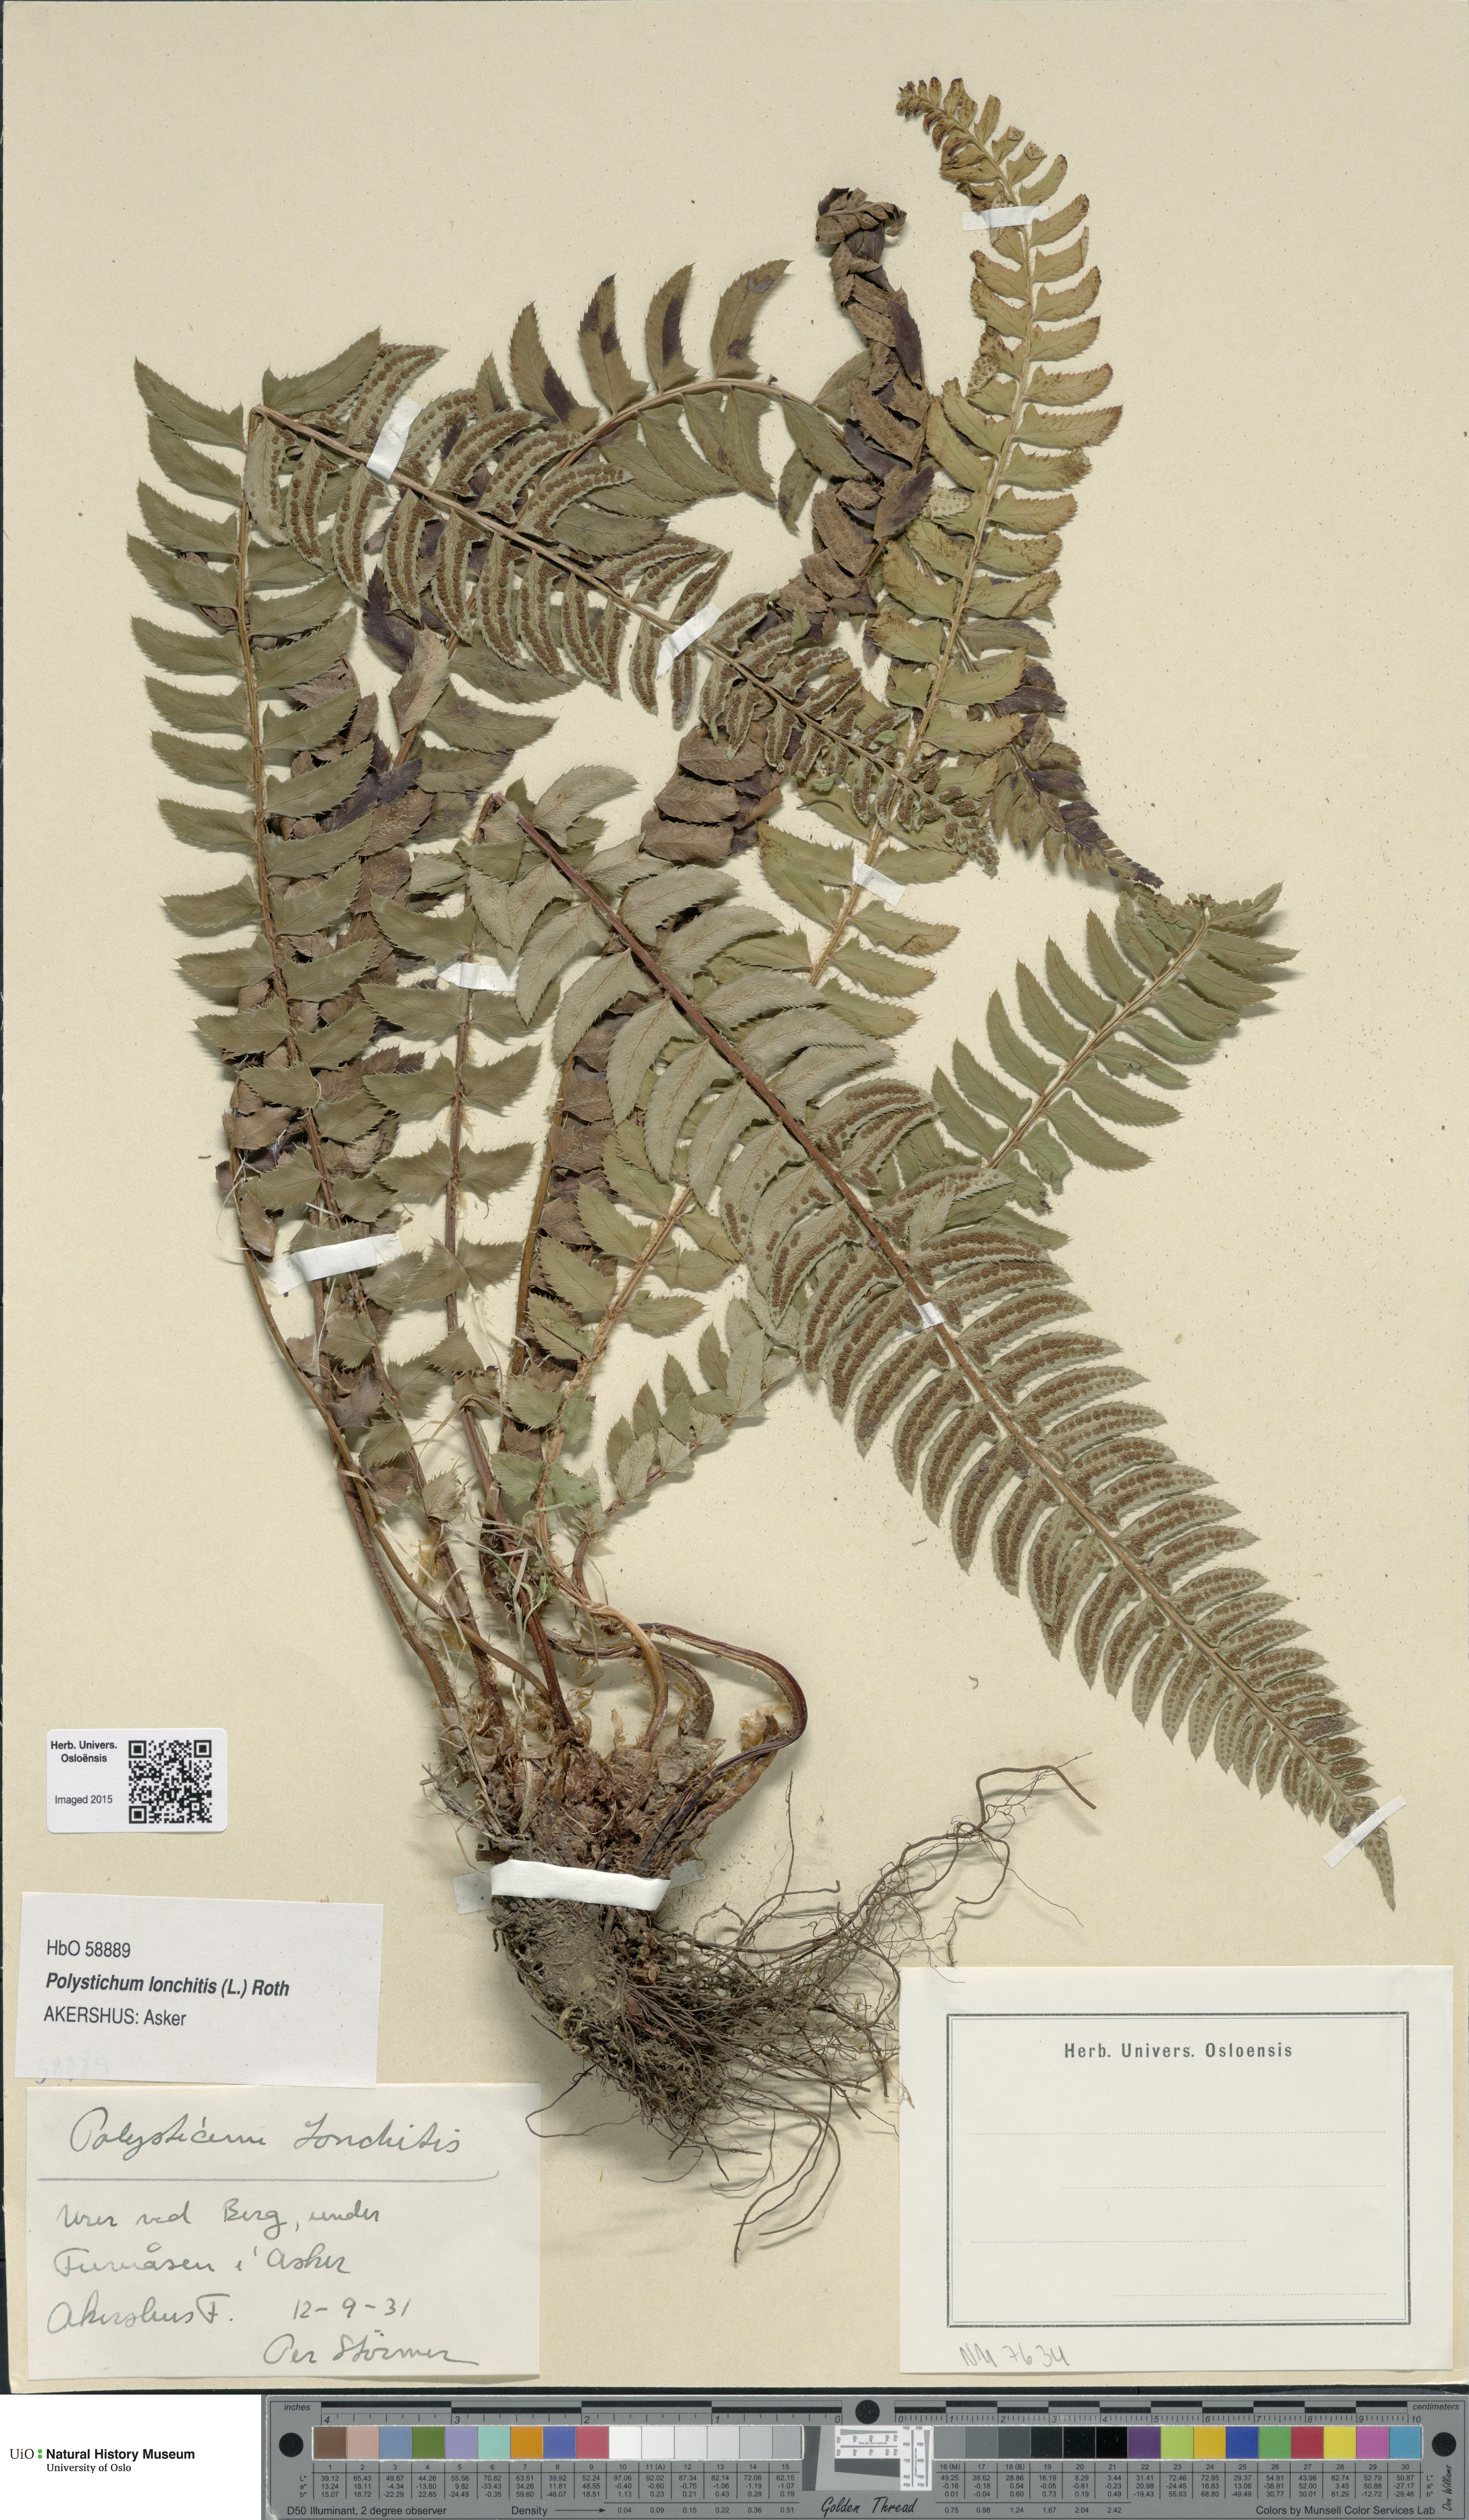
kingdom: Plantae
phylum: Tracheophyta
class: Polypodiopsida
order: Polypodiales
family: Dryopteridaceae
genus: Polystichum
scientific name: Polystichum lonchitis
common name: Holly fern
